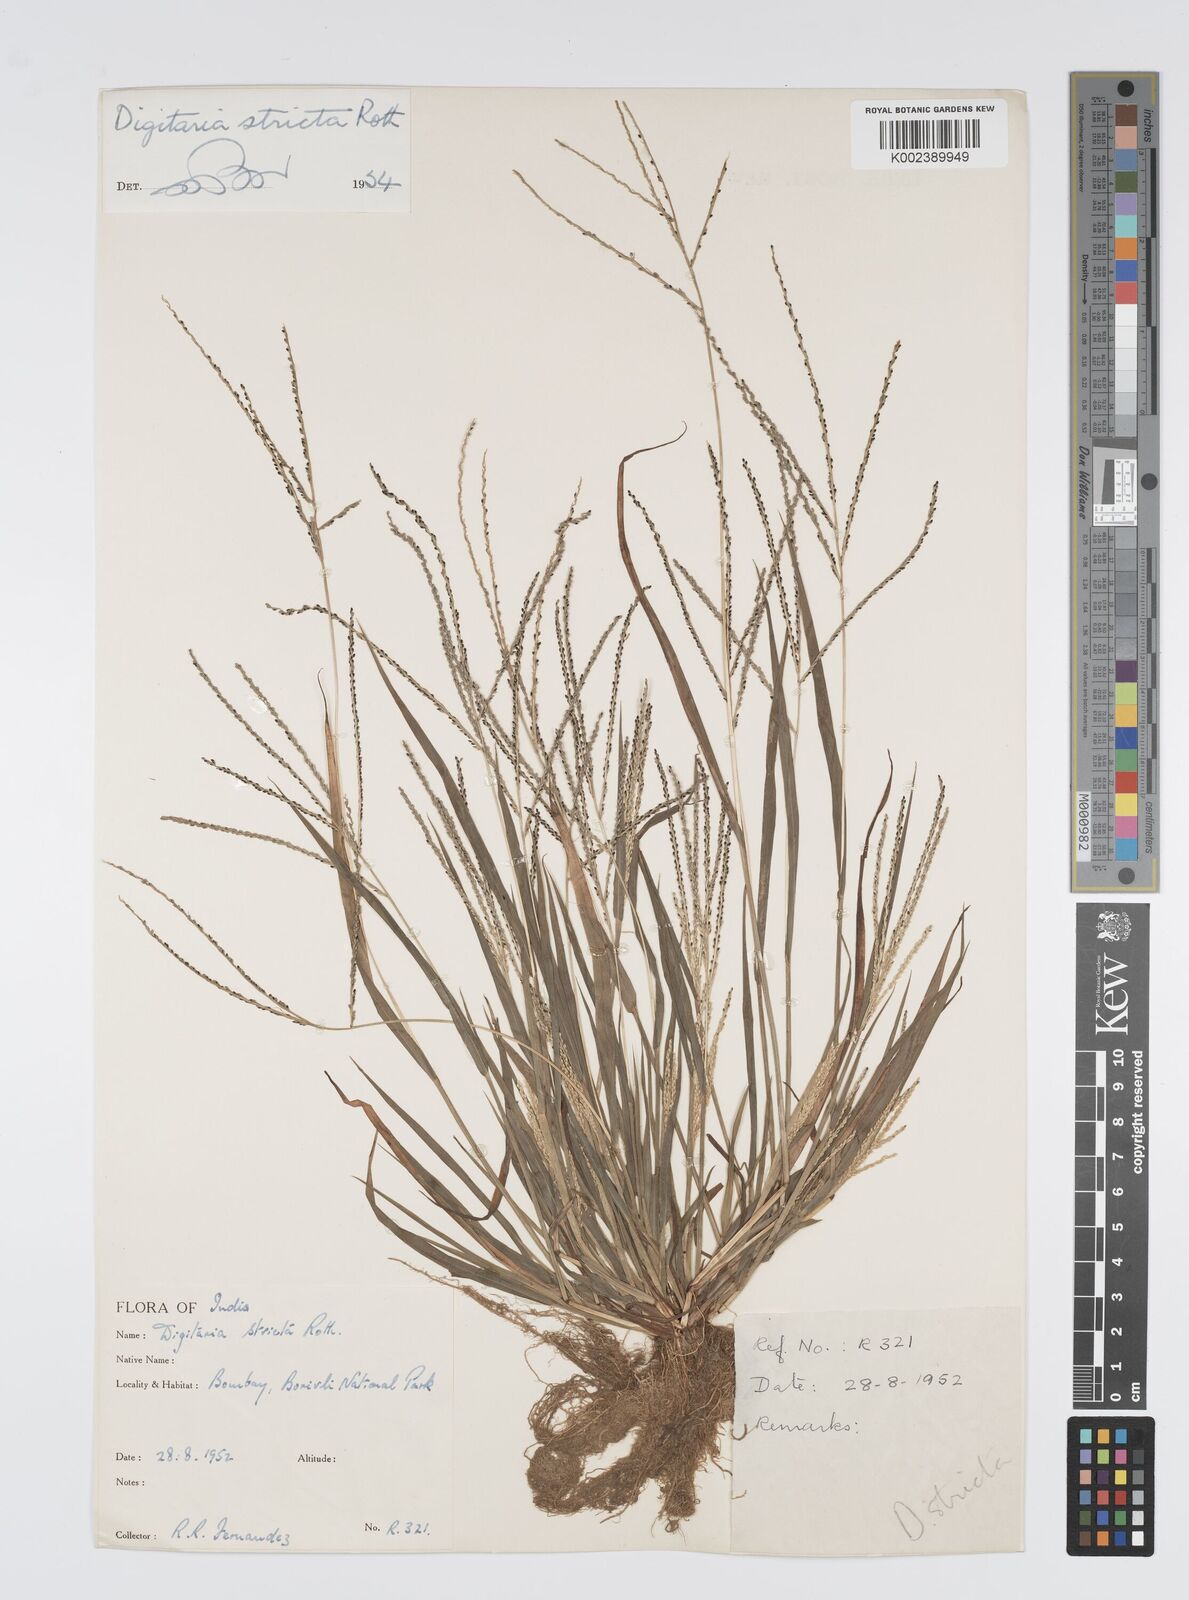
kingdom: Plantae
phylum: Tracheophyta
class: Liliopsida
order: Poales
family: Poaceae
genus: Digitaria
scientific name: Digitaria stricta
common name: Crabgrass
